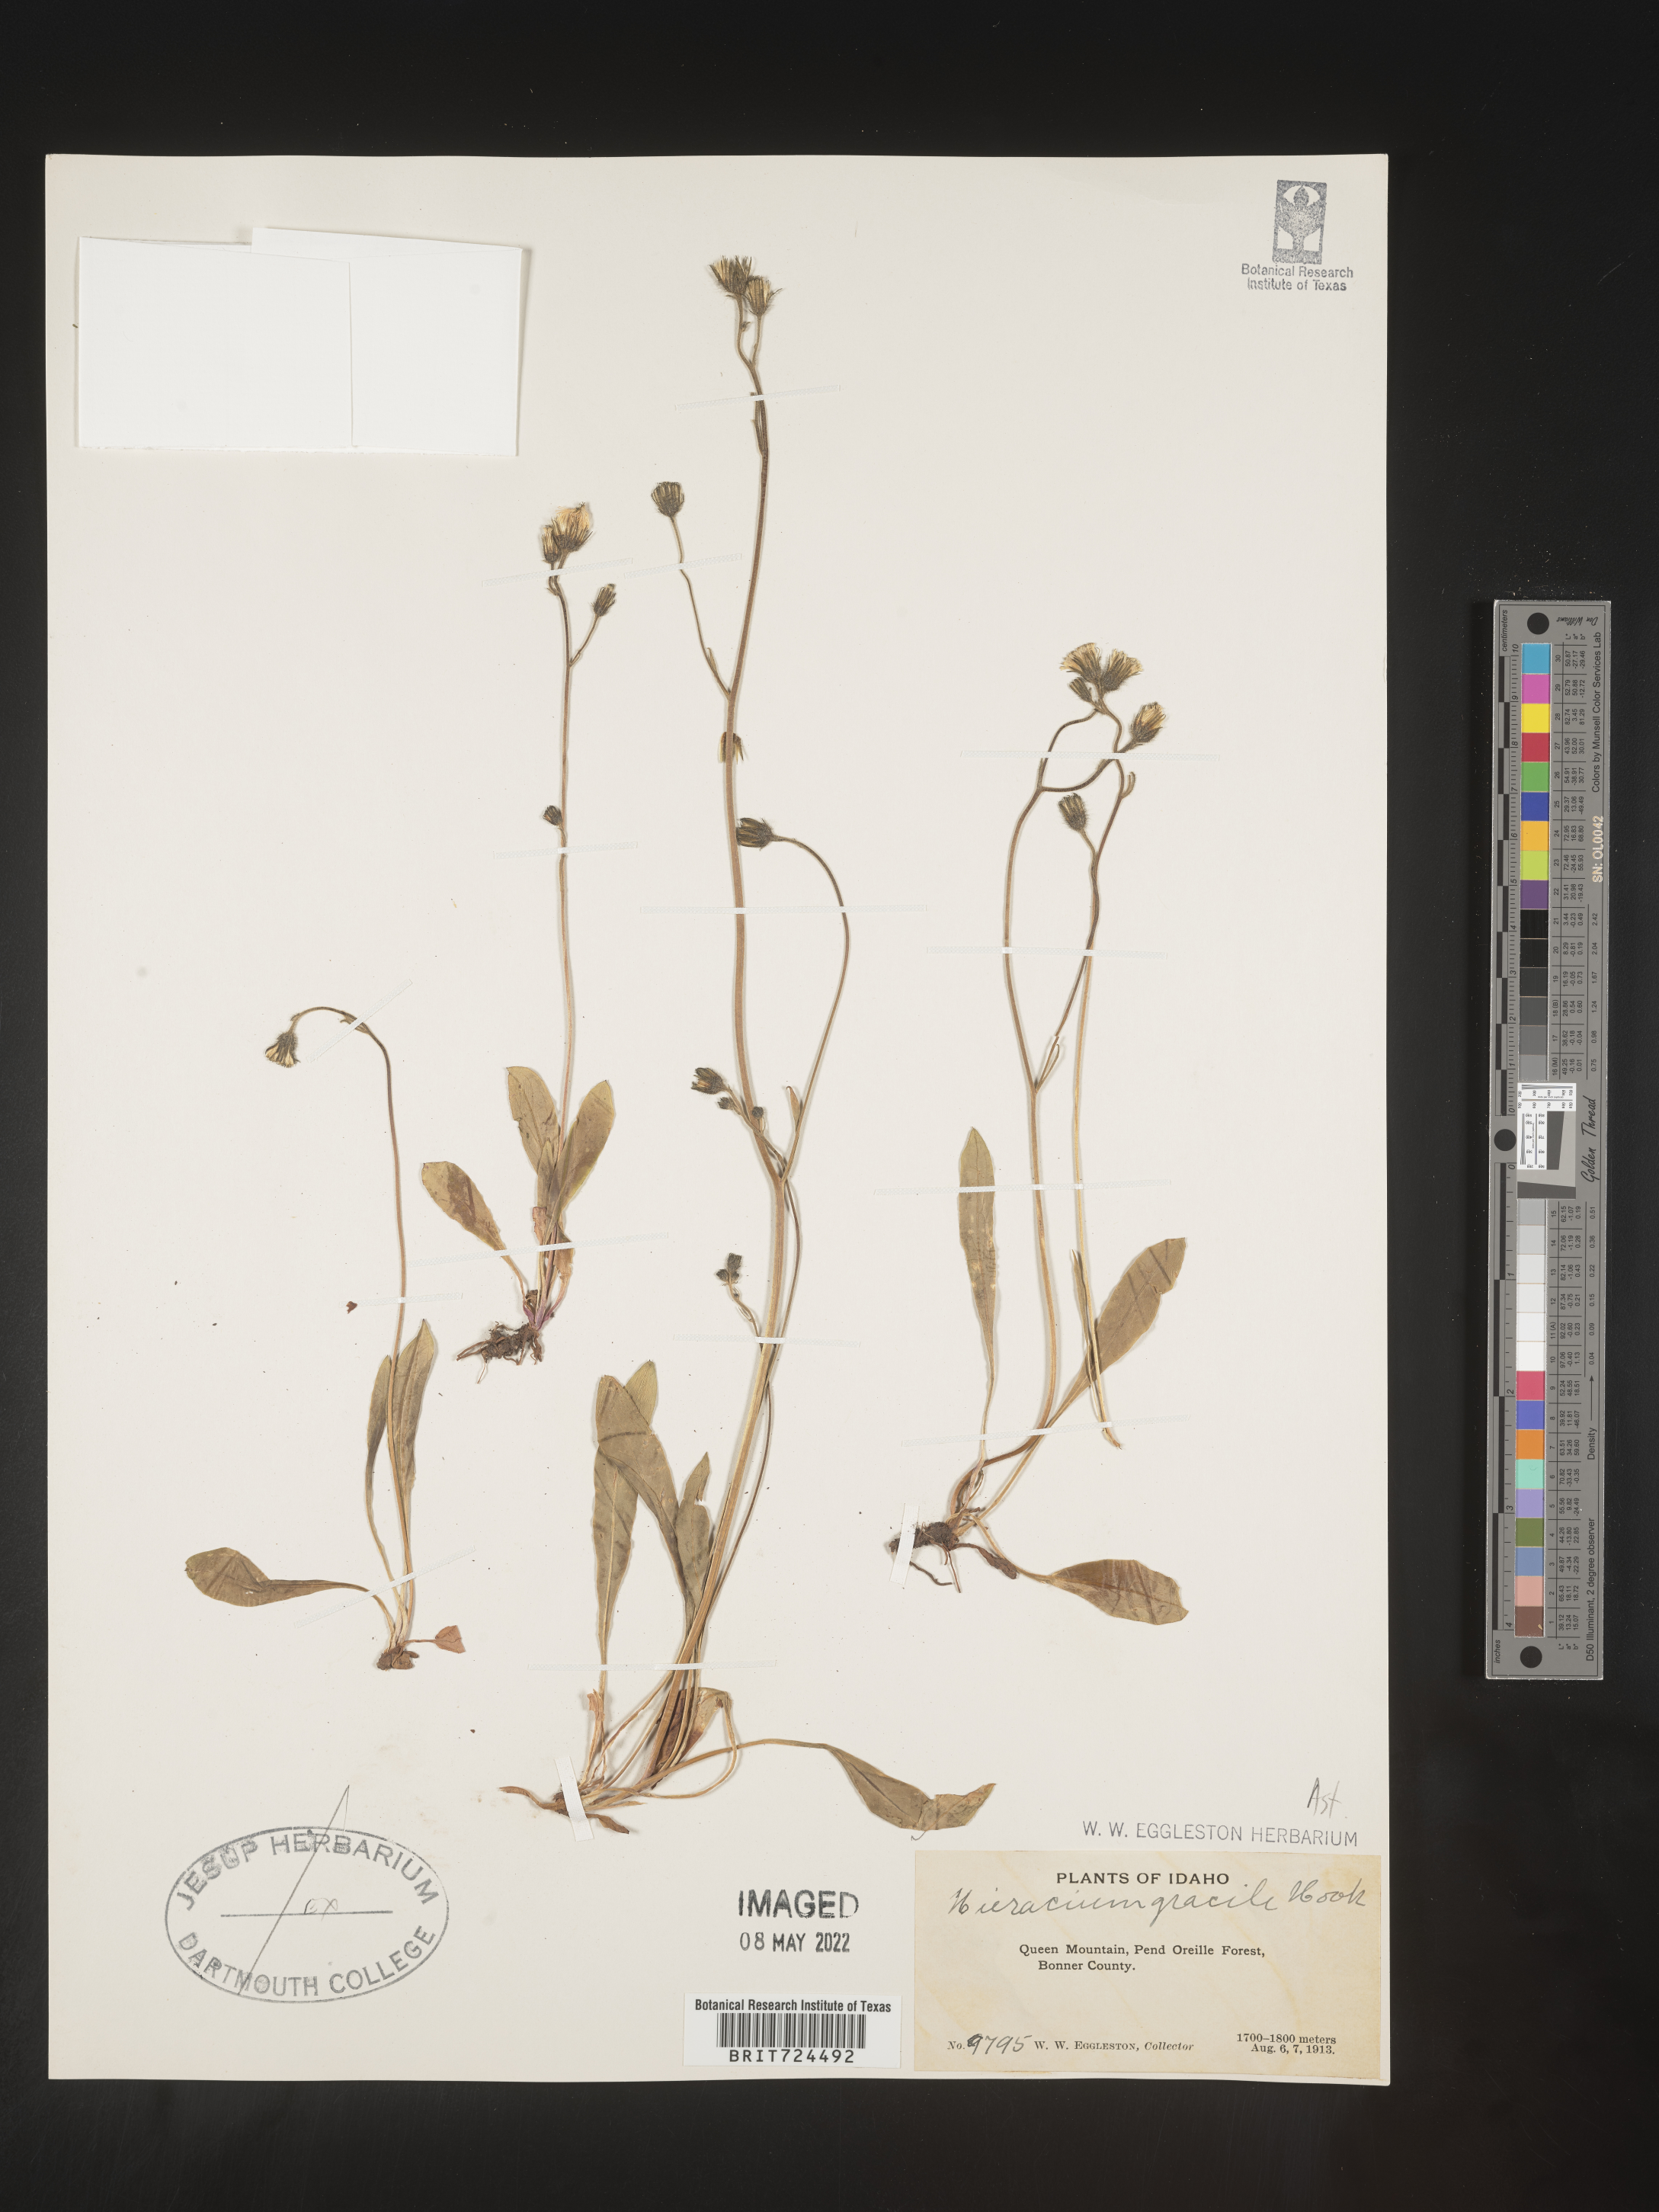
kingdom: Plantae
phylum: Tracheophyta
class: Magnoliopsida
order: Asterales
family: Asteraceae
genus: Hieracium
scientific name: Hieracium
